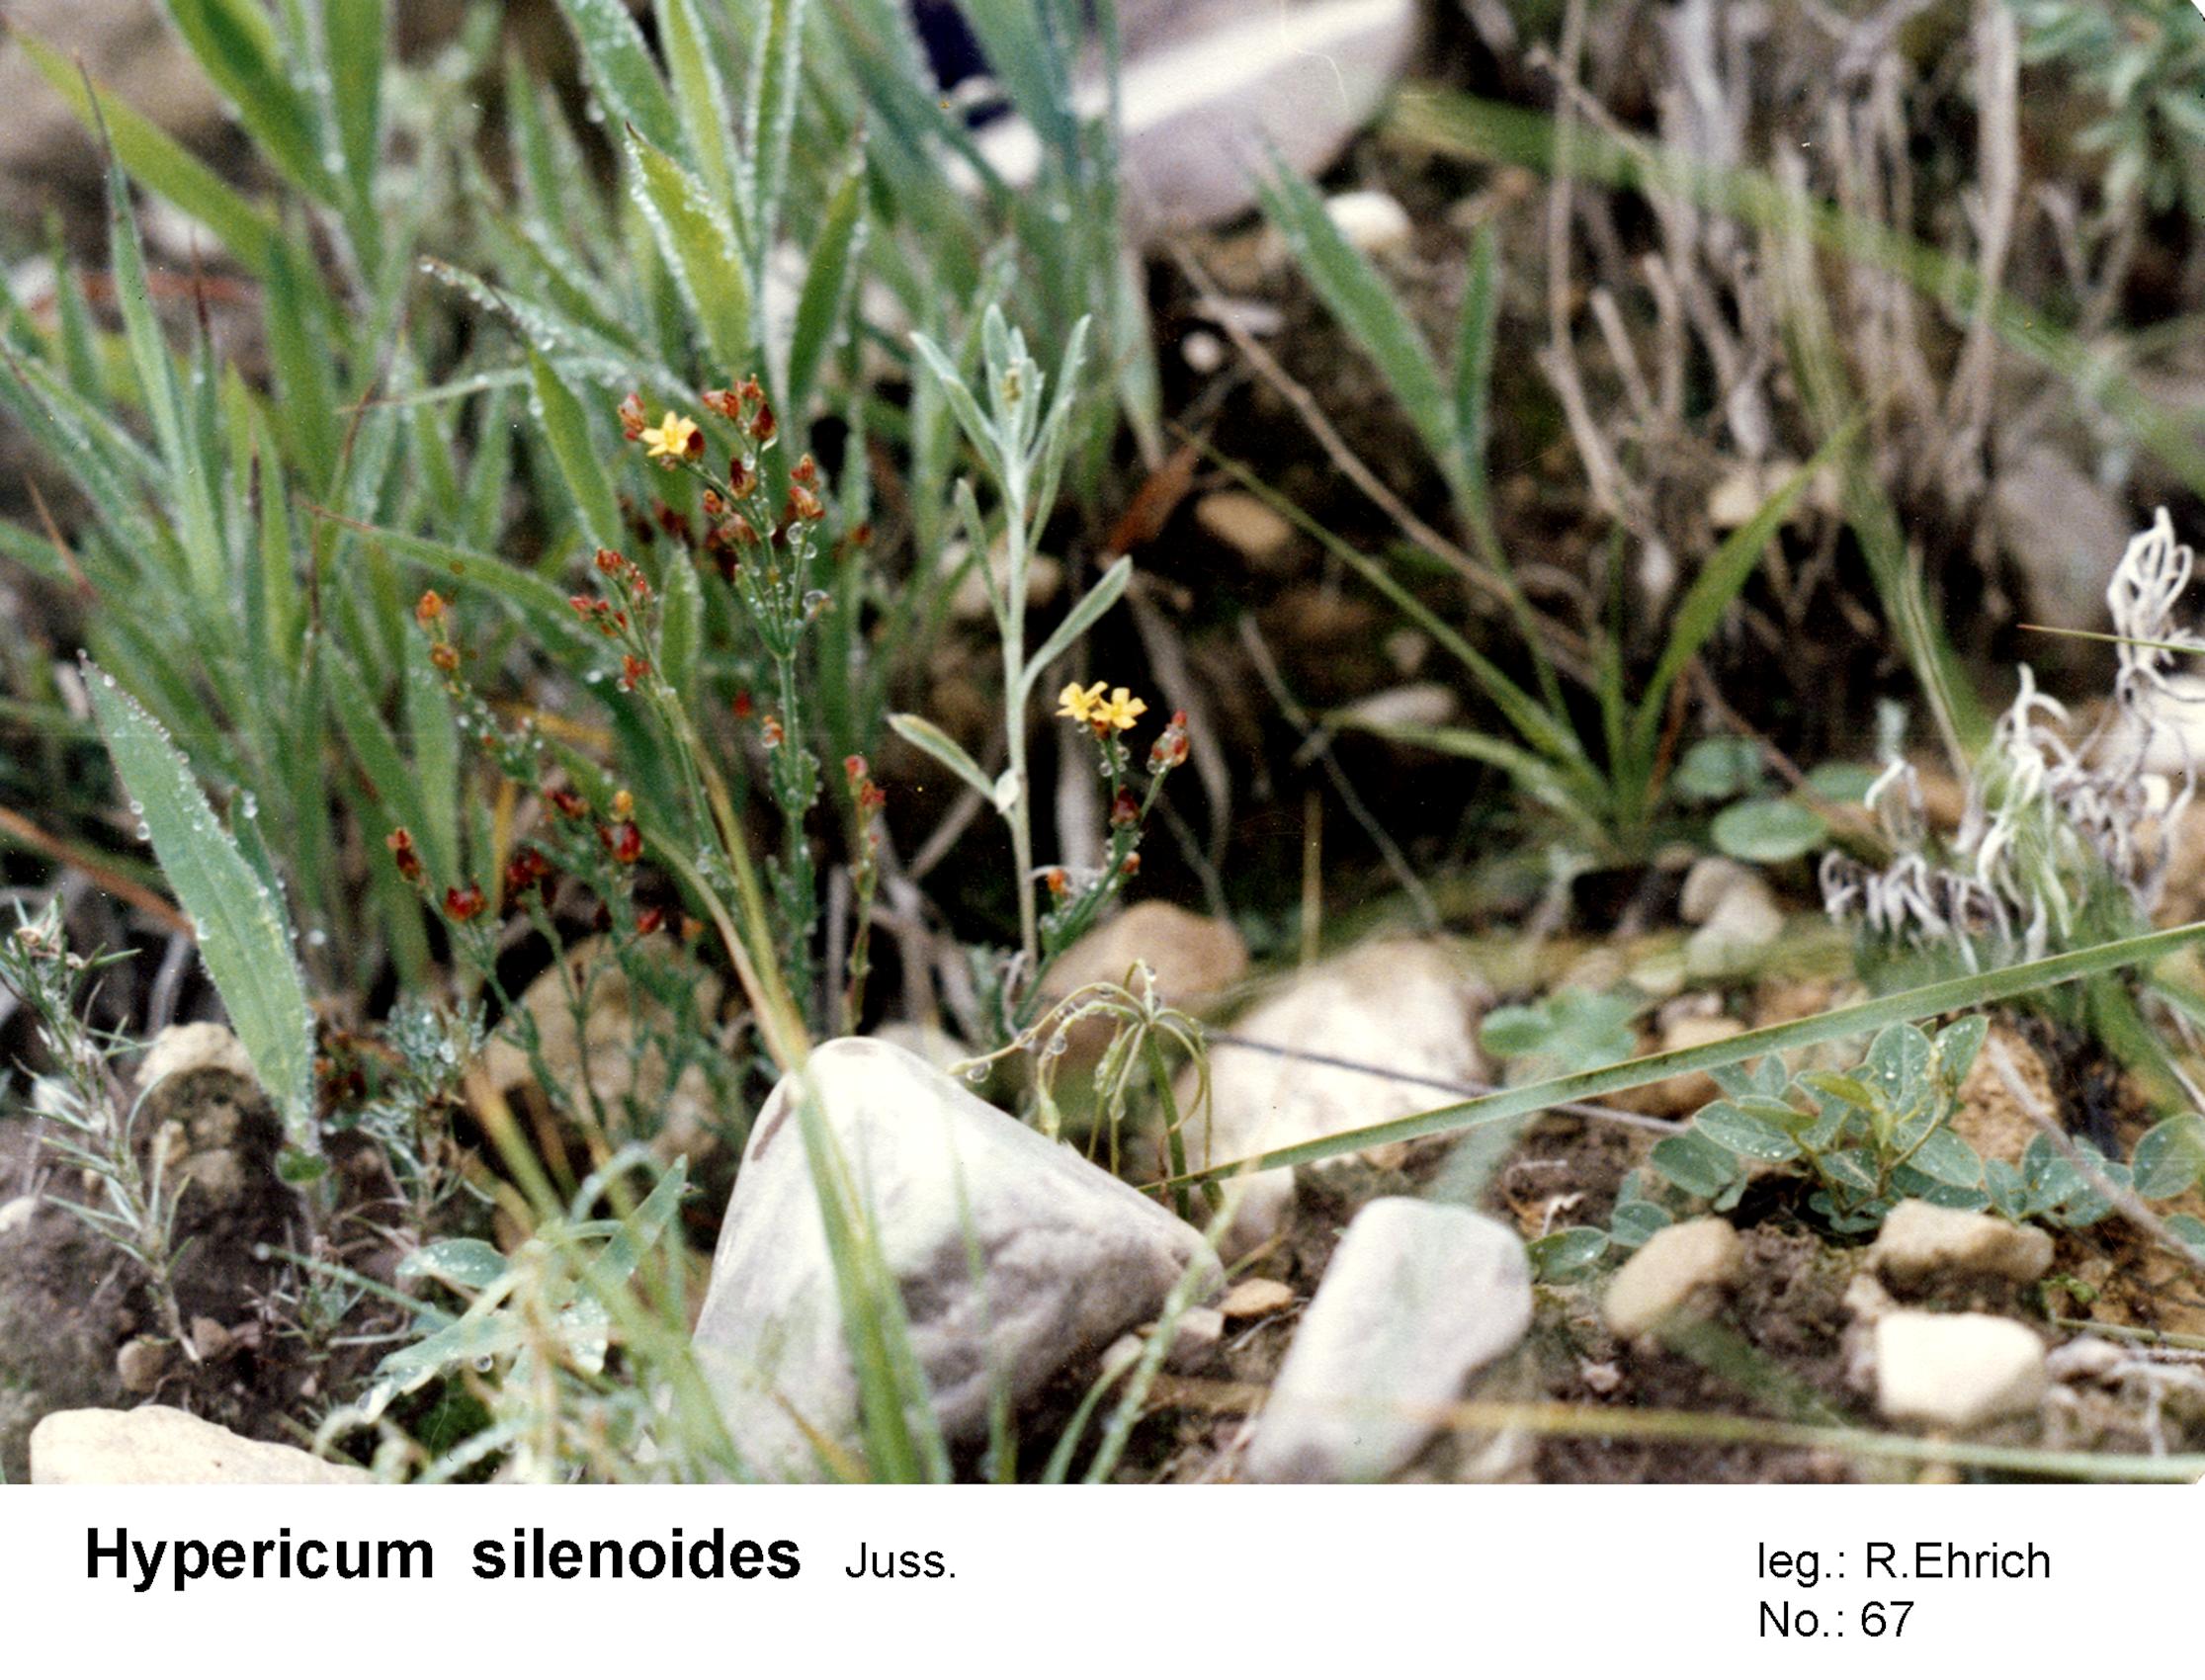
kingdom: Plantae
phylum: Tracheophyta
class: Magnoliopsida
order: Malpighiales
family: Hypericaceae
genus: Hypericum
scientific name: Hypericum silenoides
